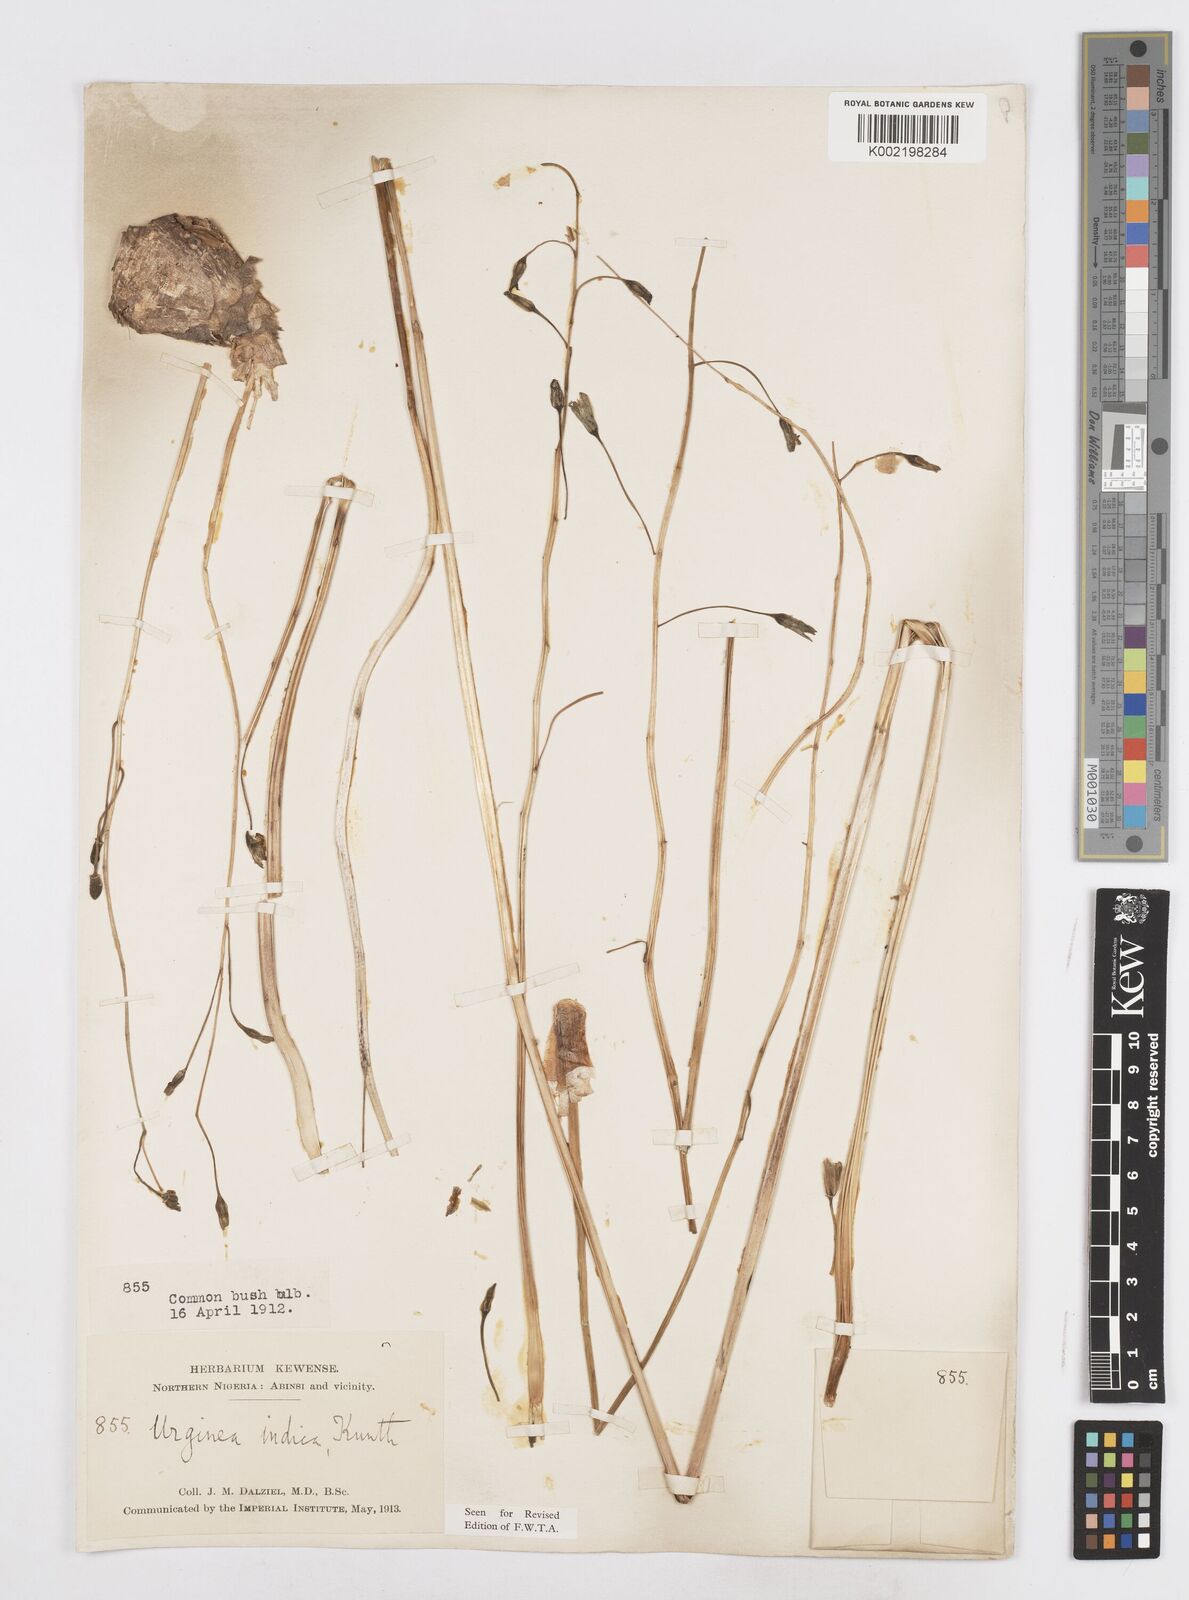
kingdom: Plantae
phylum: Tracheophyta
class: Liliopsida
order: Asparagales
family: Asparagaceae
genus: Drimia
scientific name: Drimia indica
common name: Indian-squill
